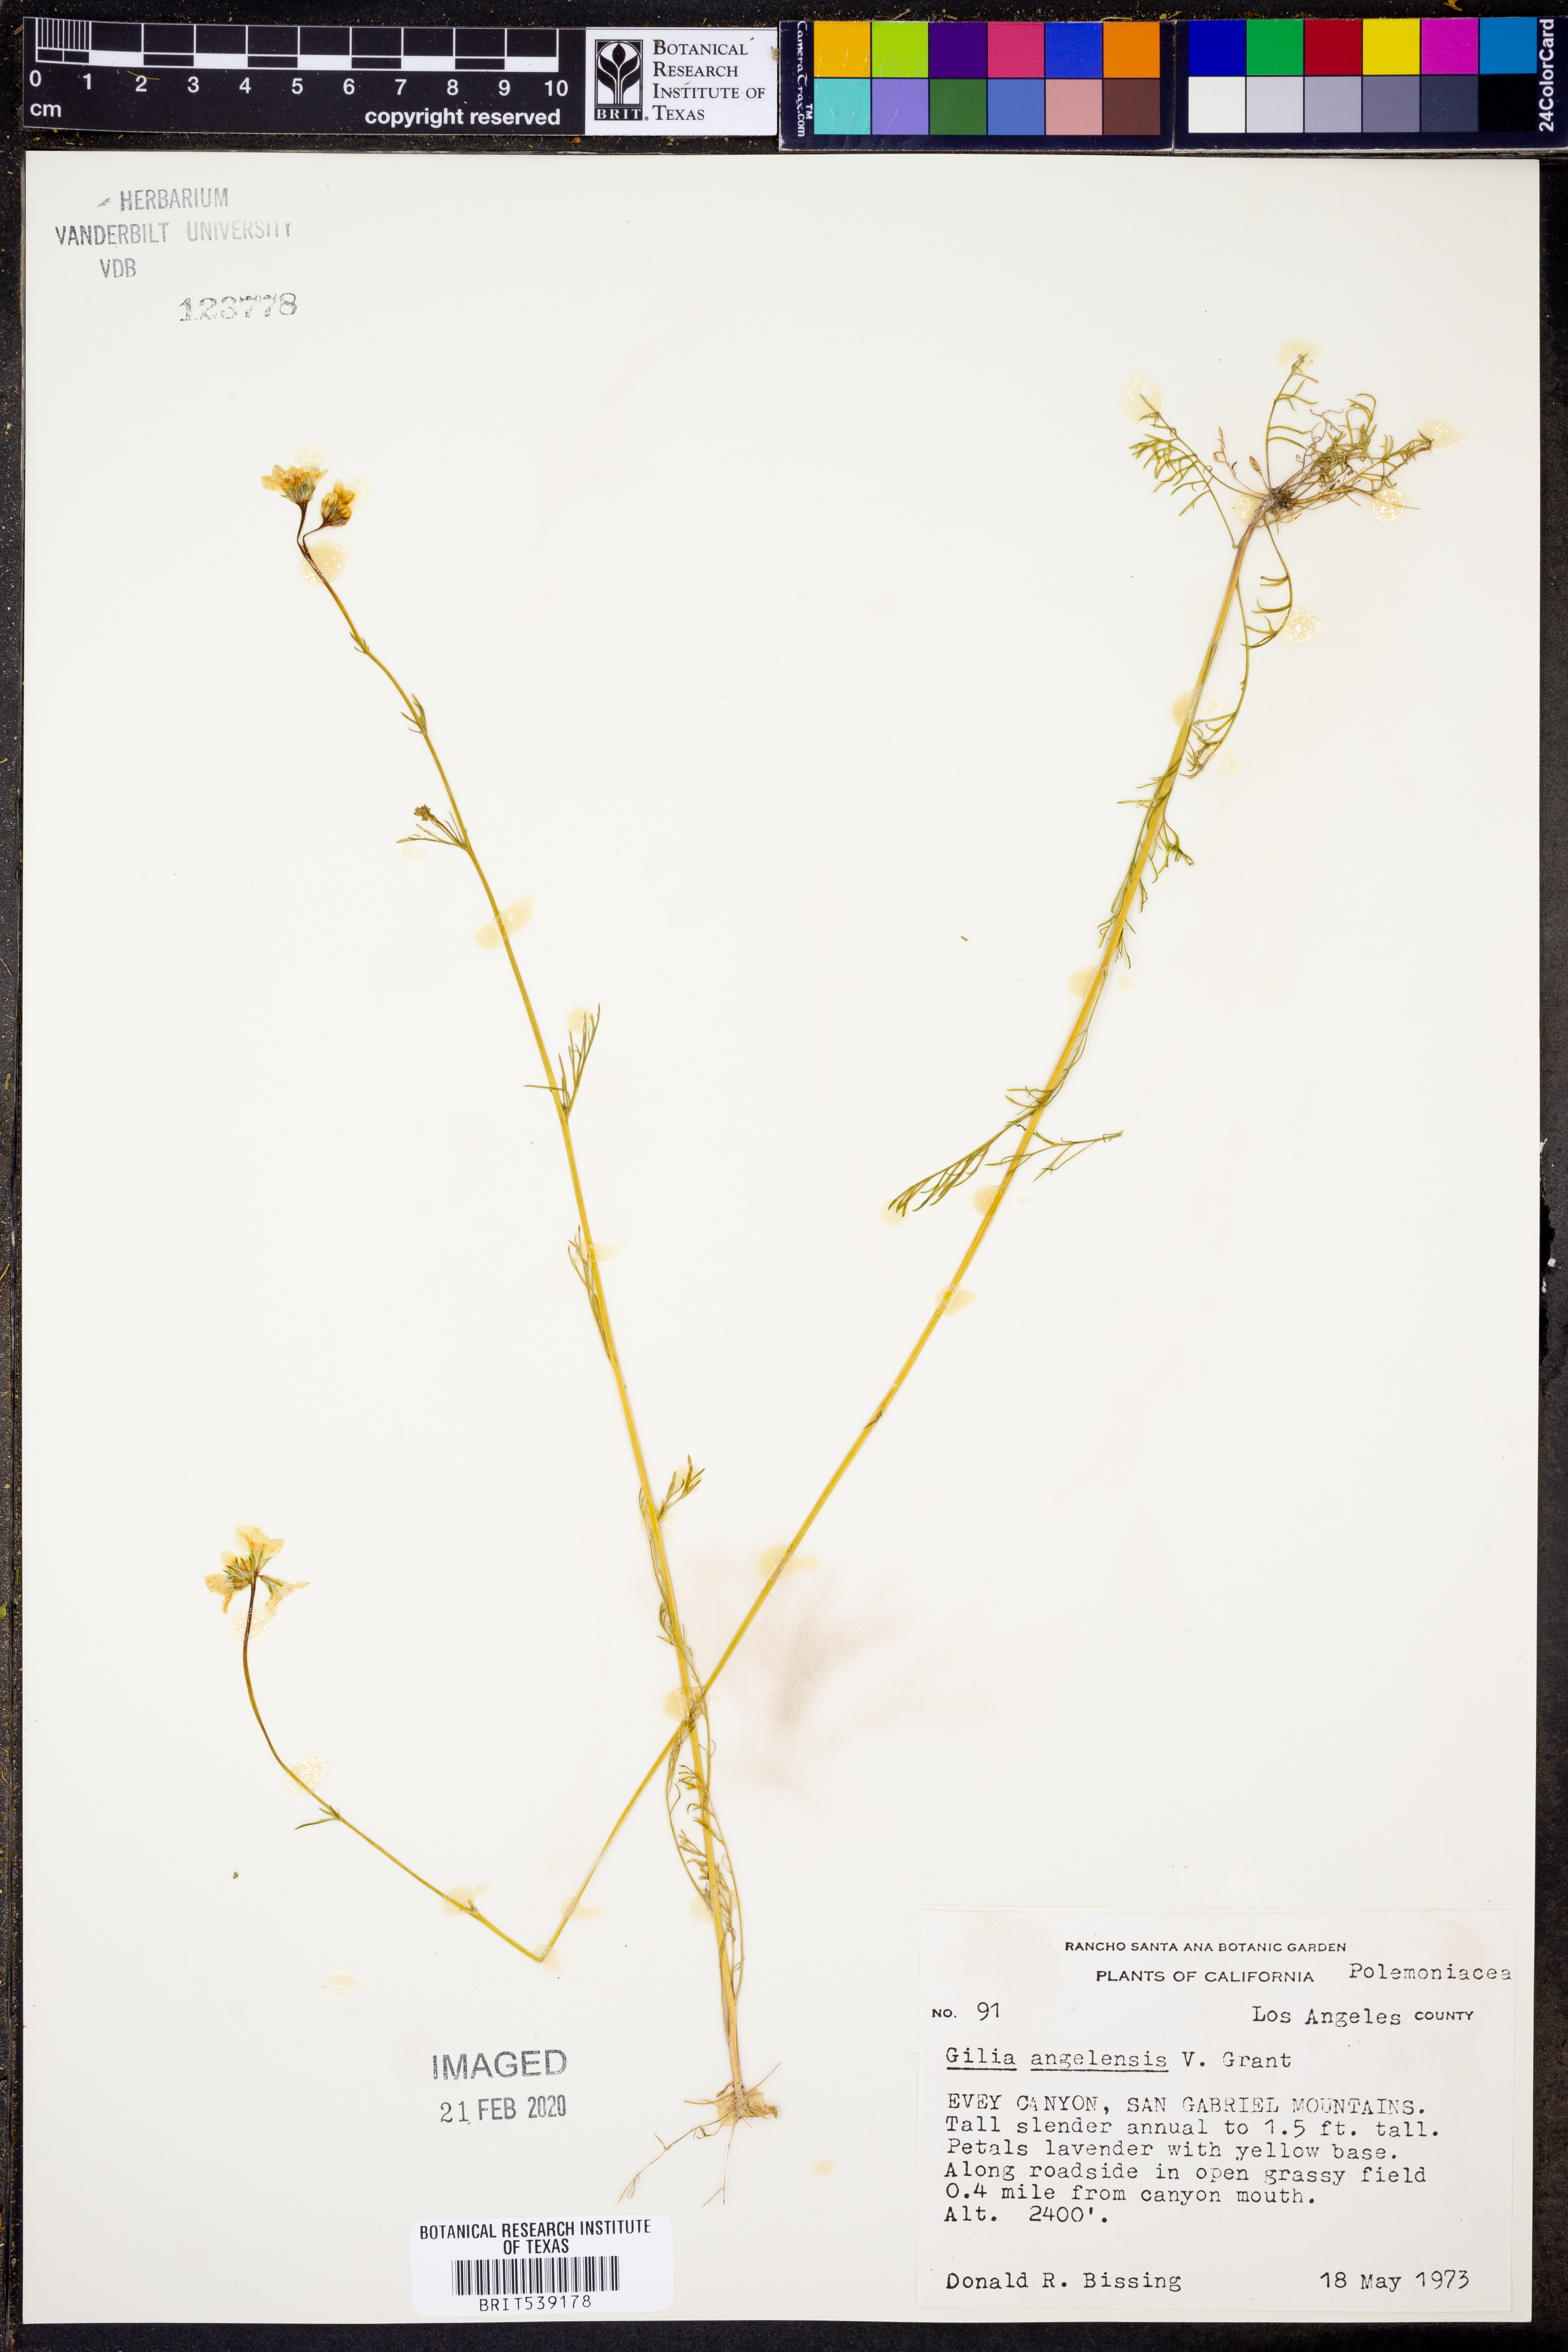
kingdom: Plantae
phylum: Tracheophyta
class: Magnoliopsida
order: Ericales
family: Polemoniaceae
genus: Gilia
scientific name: Gilia angelensis
